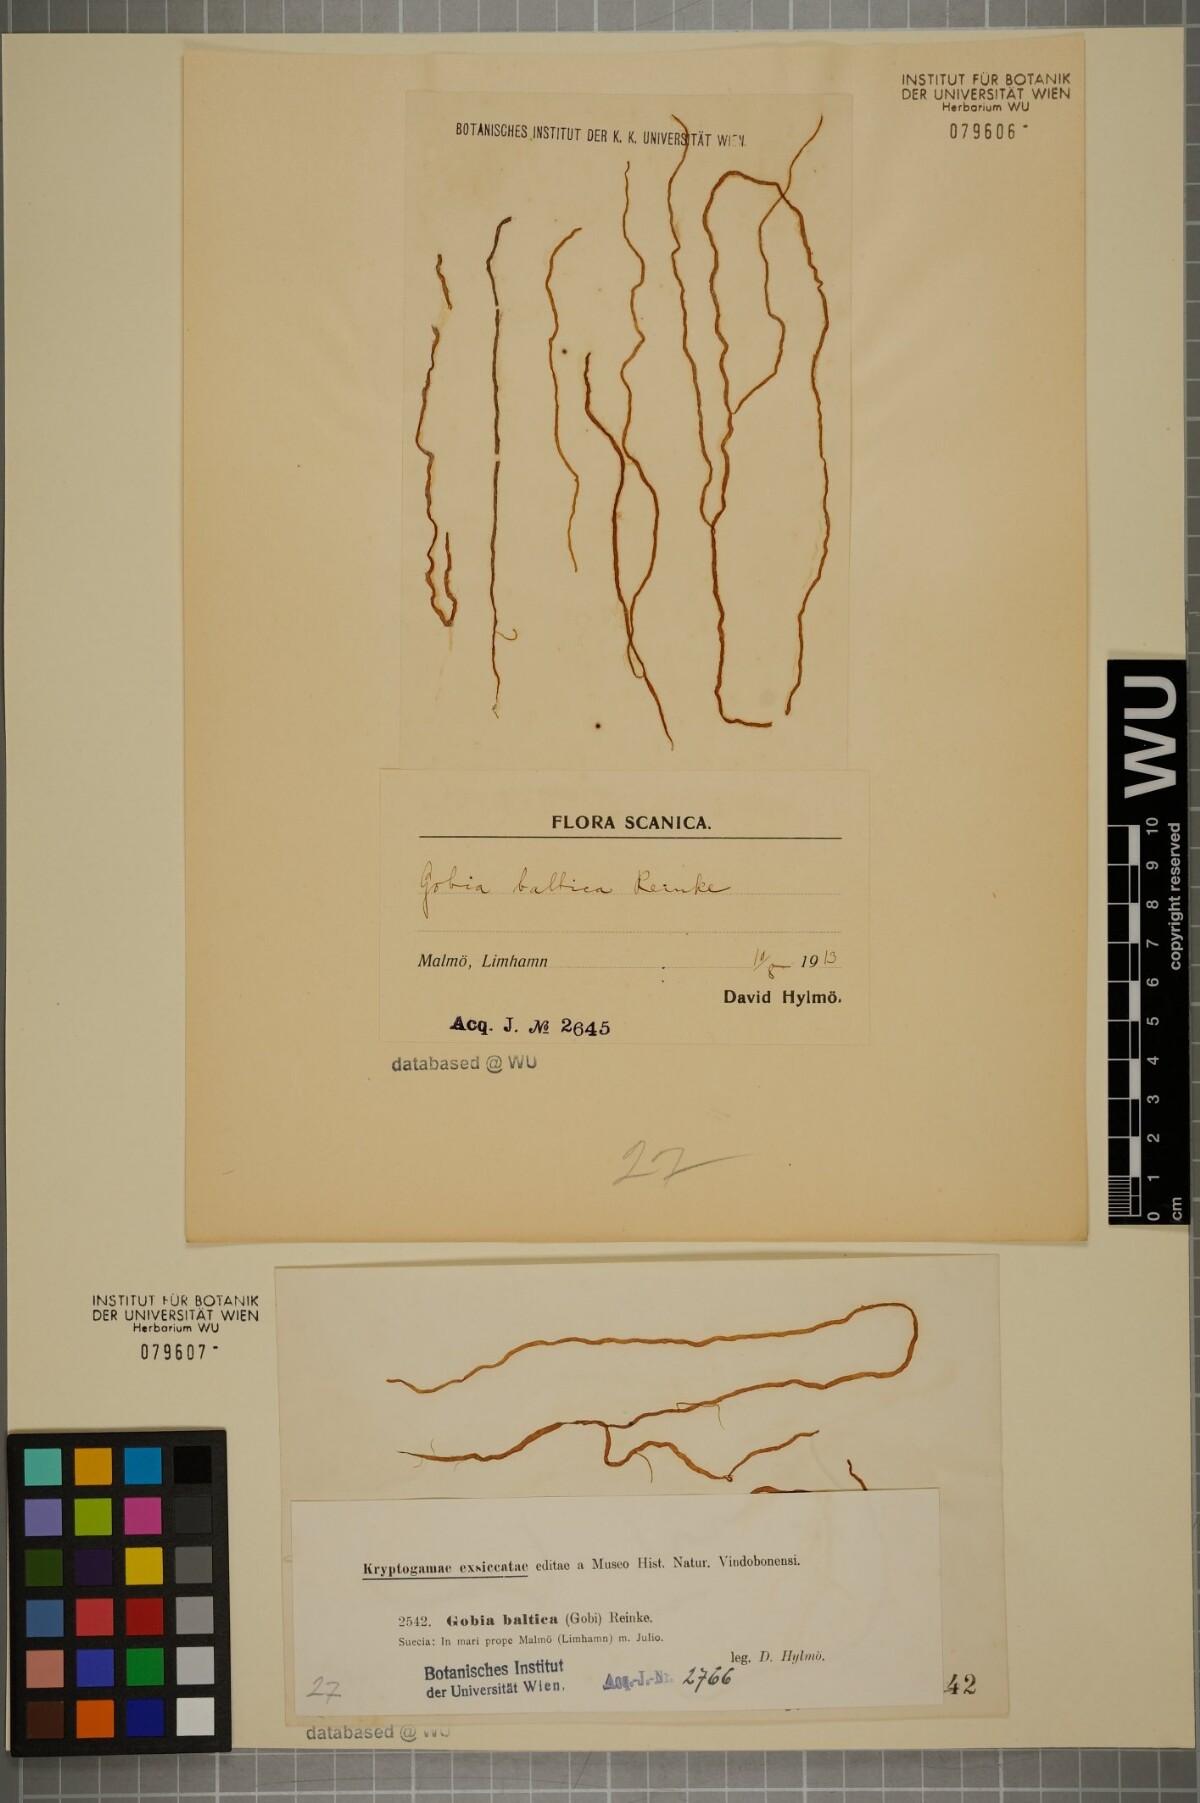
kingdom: Chromista
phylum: Ochrophyta
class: Phaeophyceae
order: Ectocarpales
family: Chordariaceae
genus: Dictyosiphon
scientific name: Dictyosiphon chordaria
